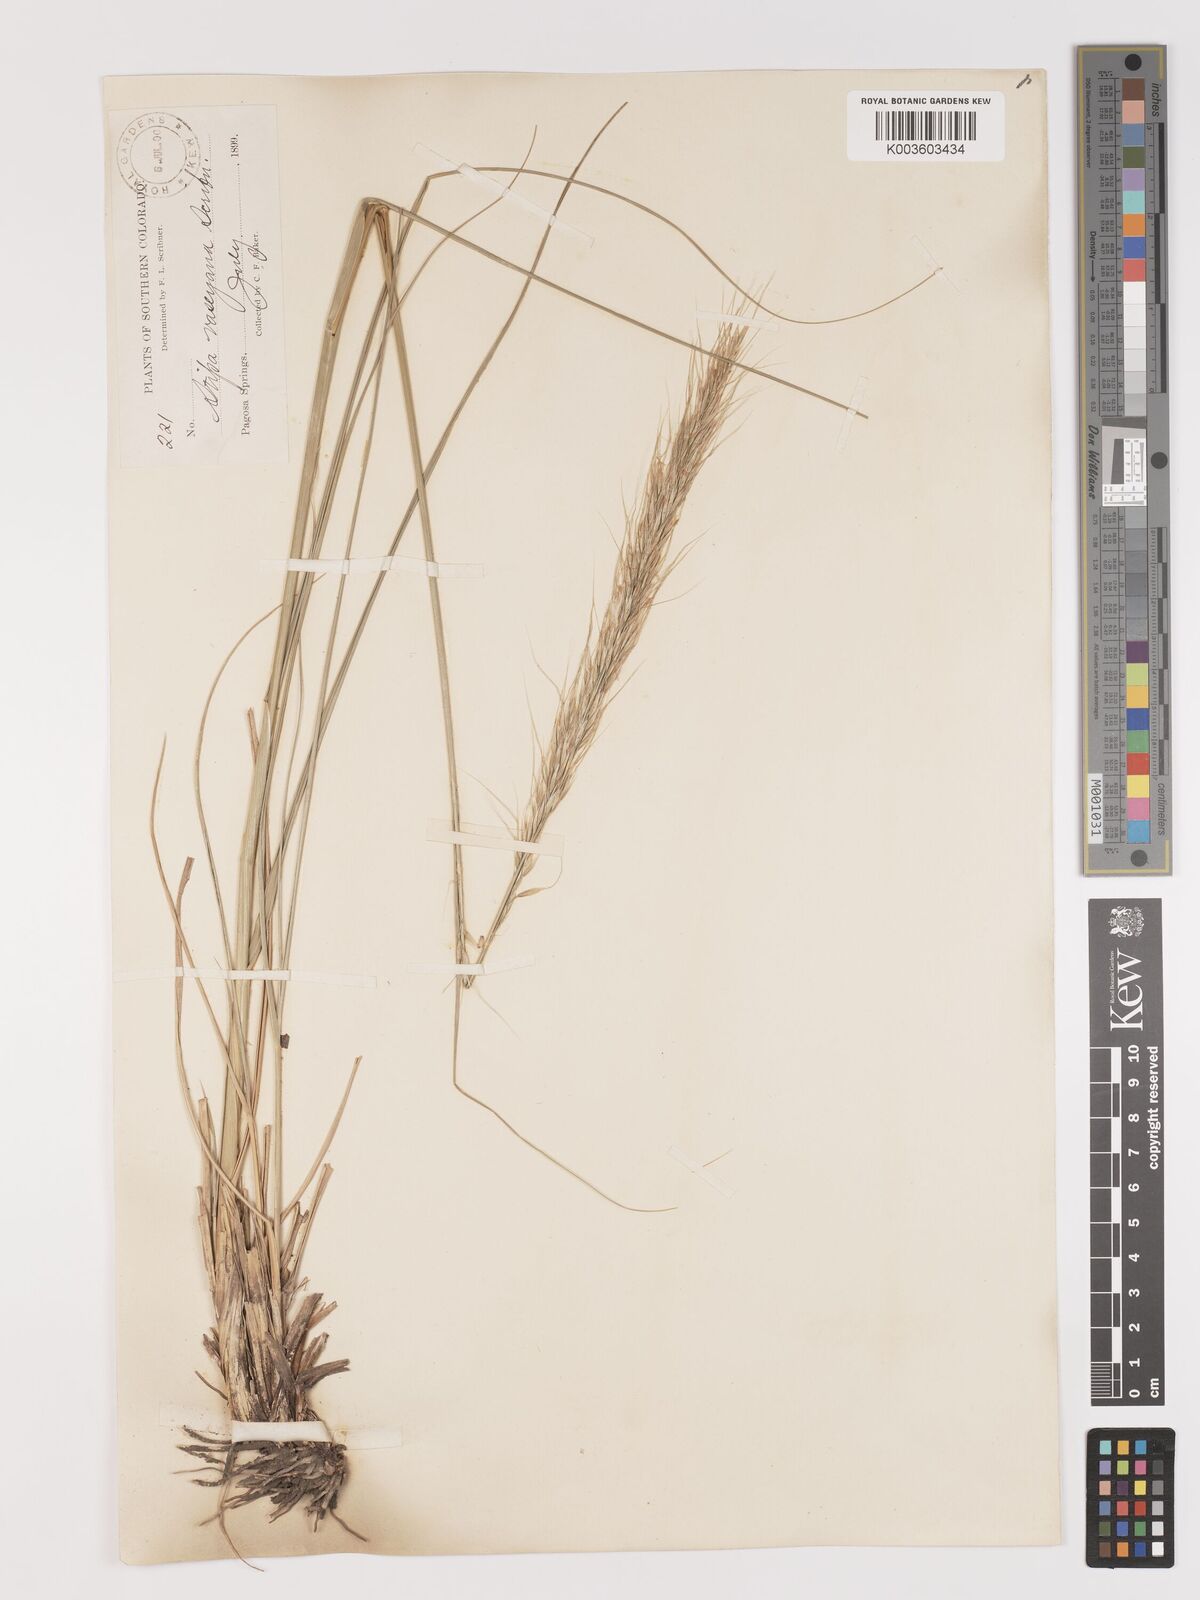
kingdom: Plantae
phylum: Tracheophyta
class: Liliopsida
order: Poales
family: Poaceae
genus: Eriocoma
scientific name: Eriocoma robusta
